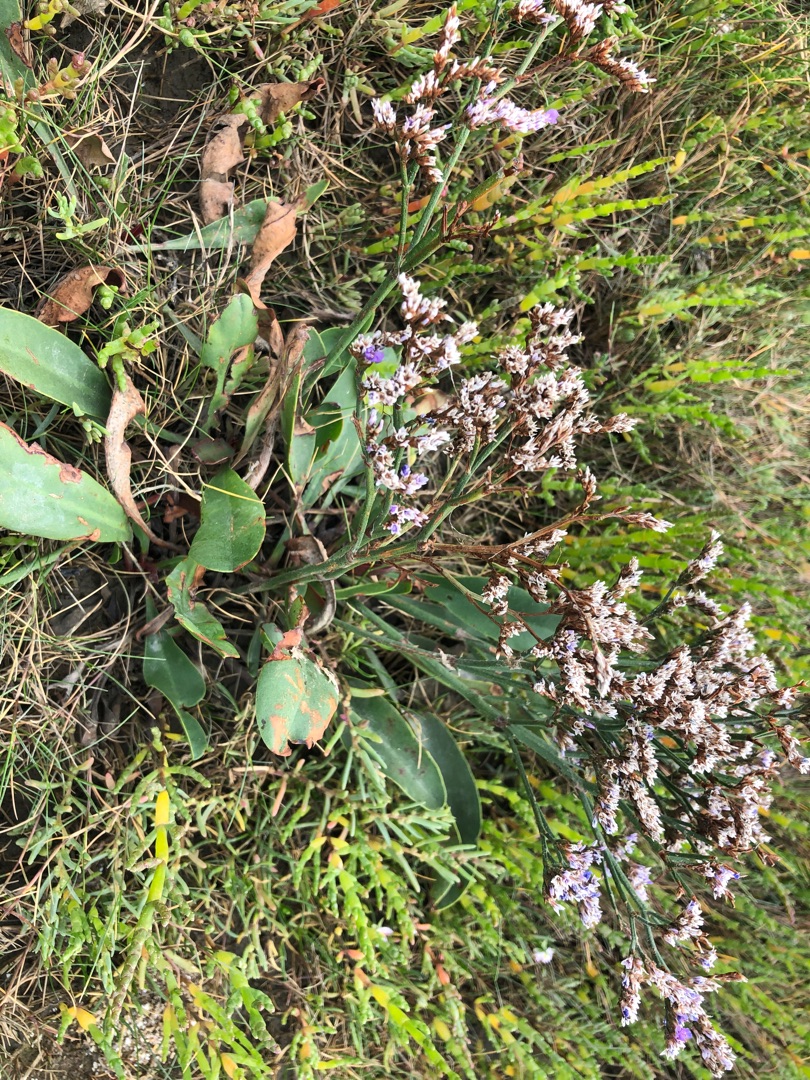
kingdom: Plantae
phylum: Tracheophyta
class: Magnoliopsida
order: Caryophyllales
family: Plumbaginaceae
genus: Limonium
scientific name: Limonium vulgare
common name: Tætblomstret hindebæger
